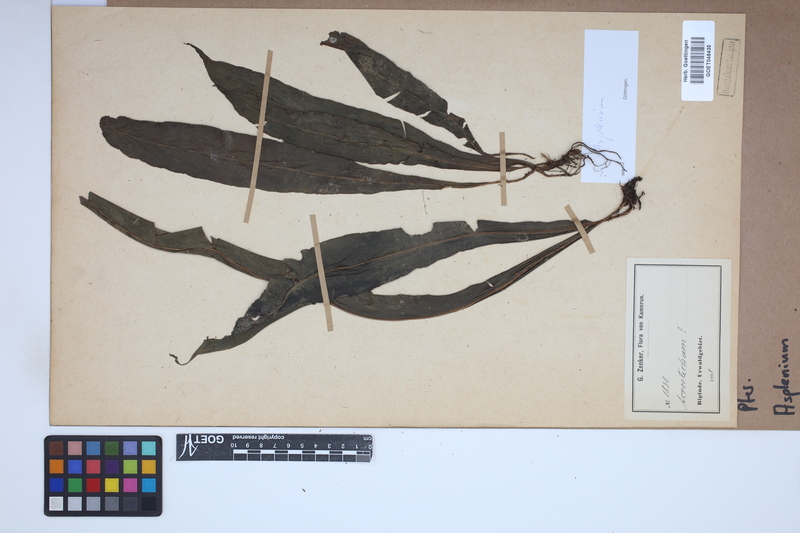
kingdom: Plantae
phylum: Tracheophyta
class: Polypodiopsida
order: Polypodiales
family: Aspleniaceae
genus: Asplenium
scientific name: Asplenium
